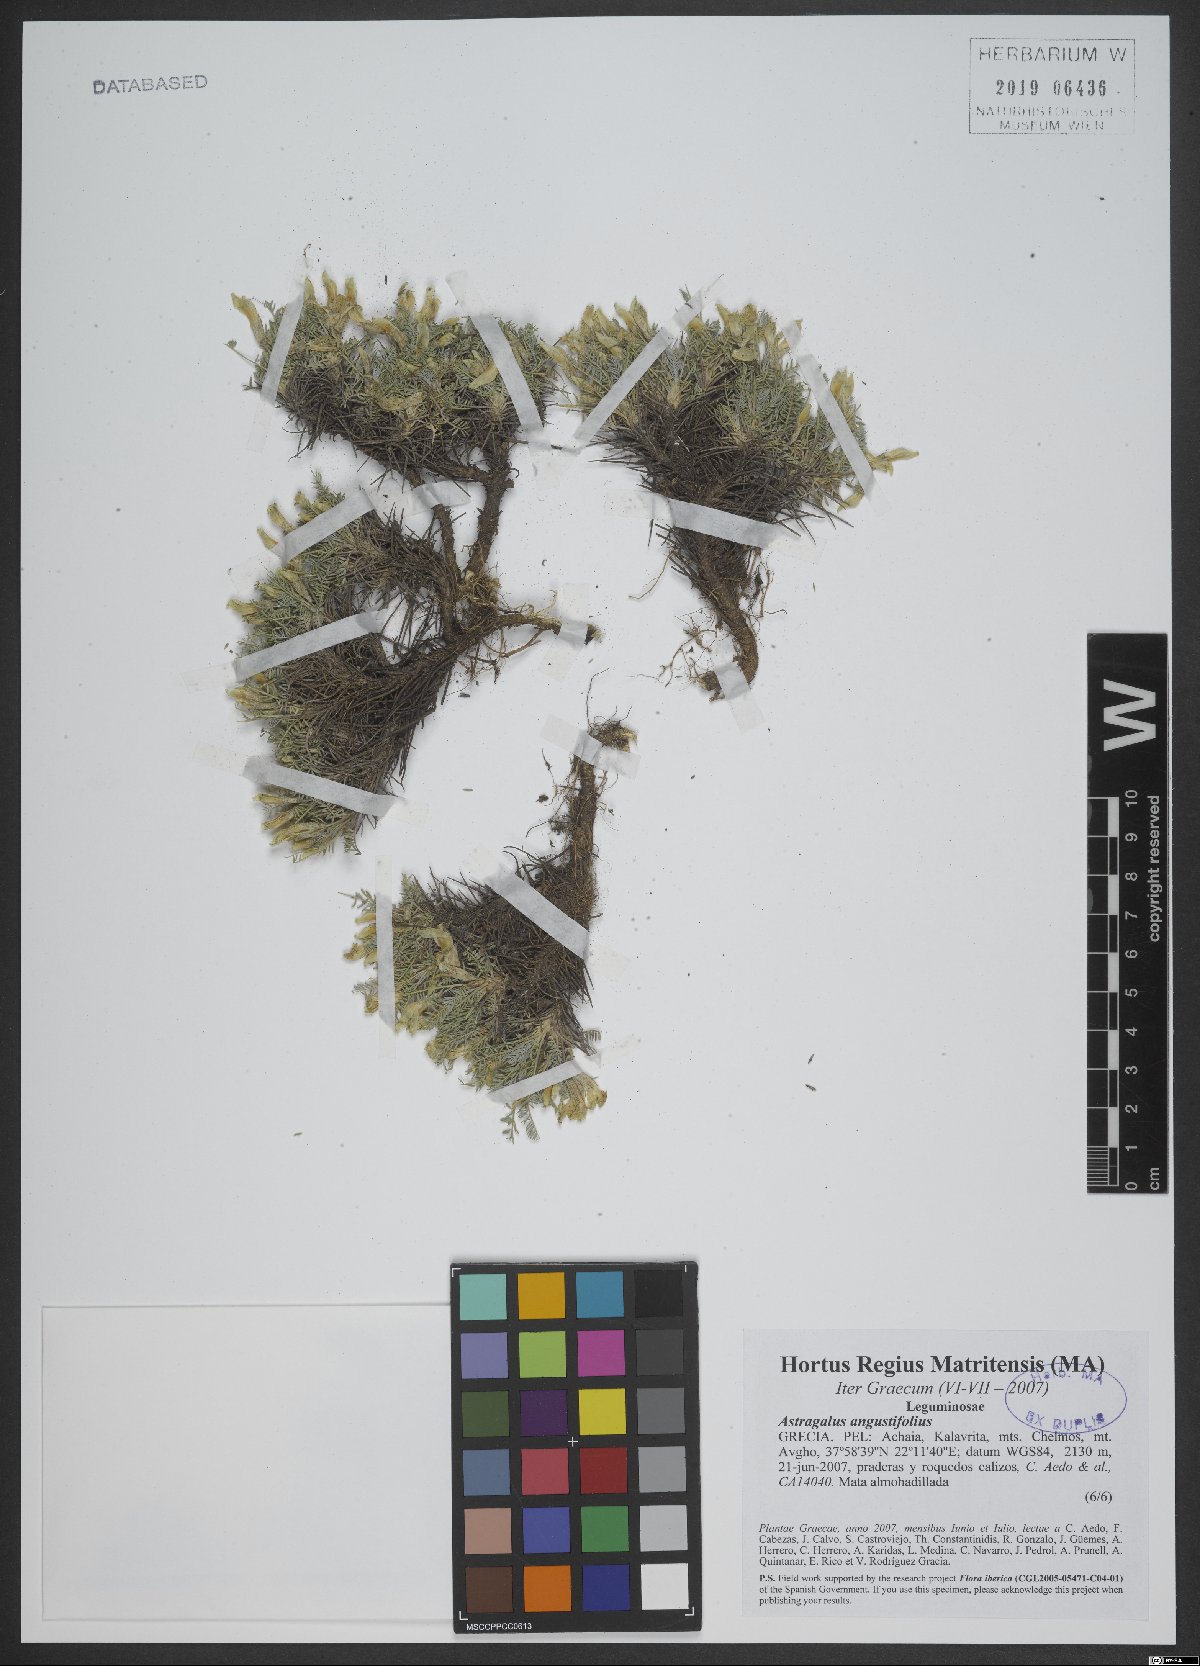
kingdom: Plantae
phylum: Tracheophyta
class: Magnoliopsida
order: Fabales
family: Fabaceae
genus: Astragalus
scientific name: Astragalus angustifolius
